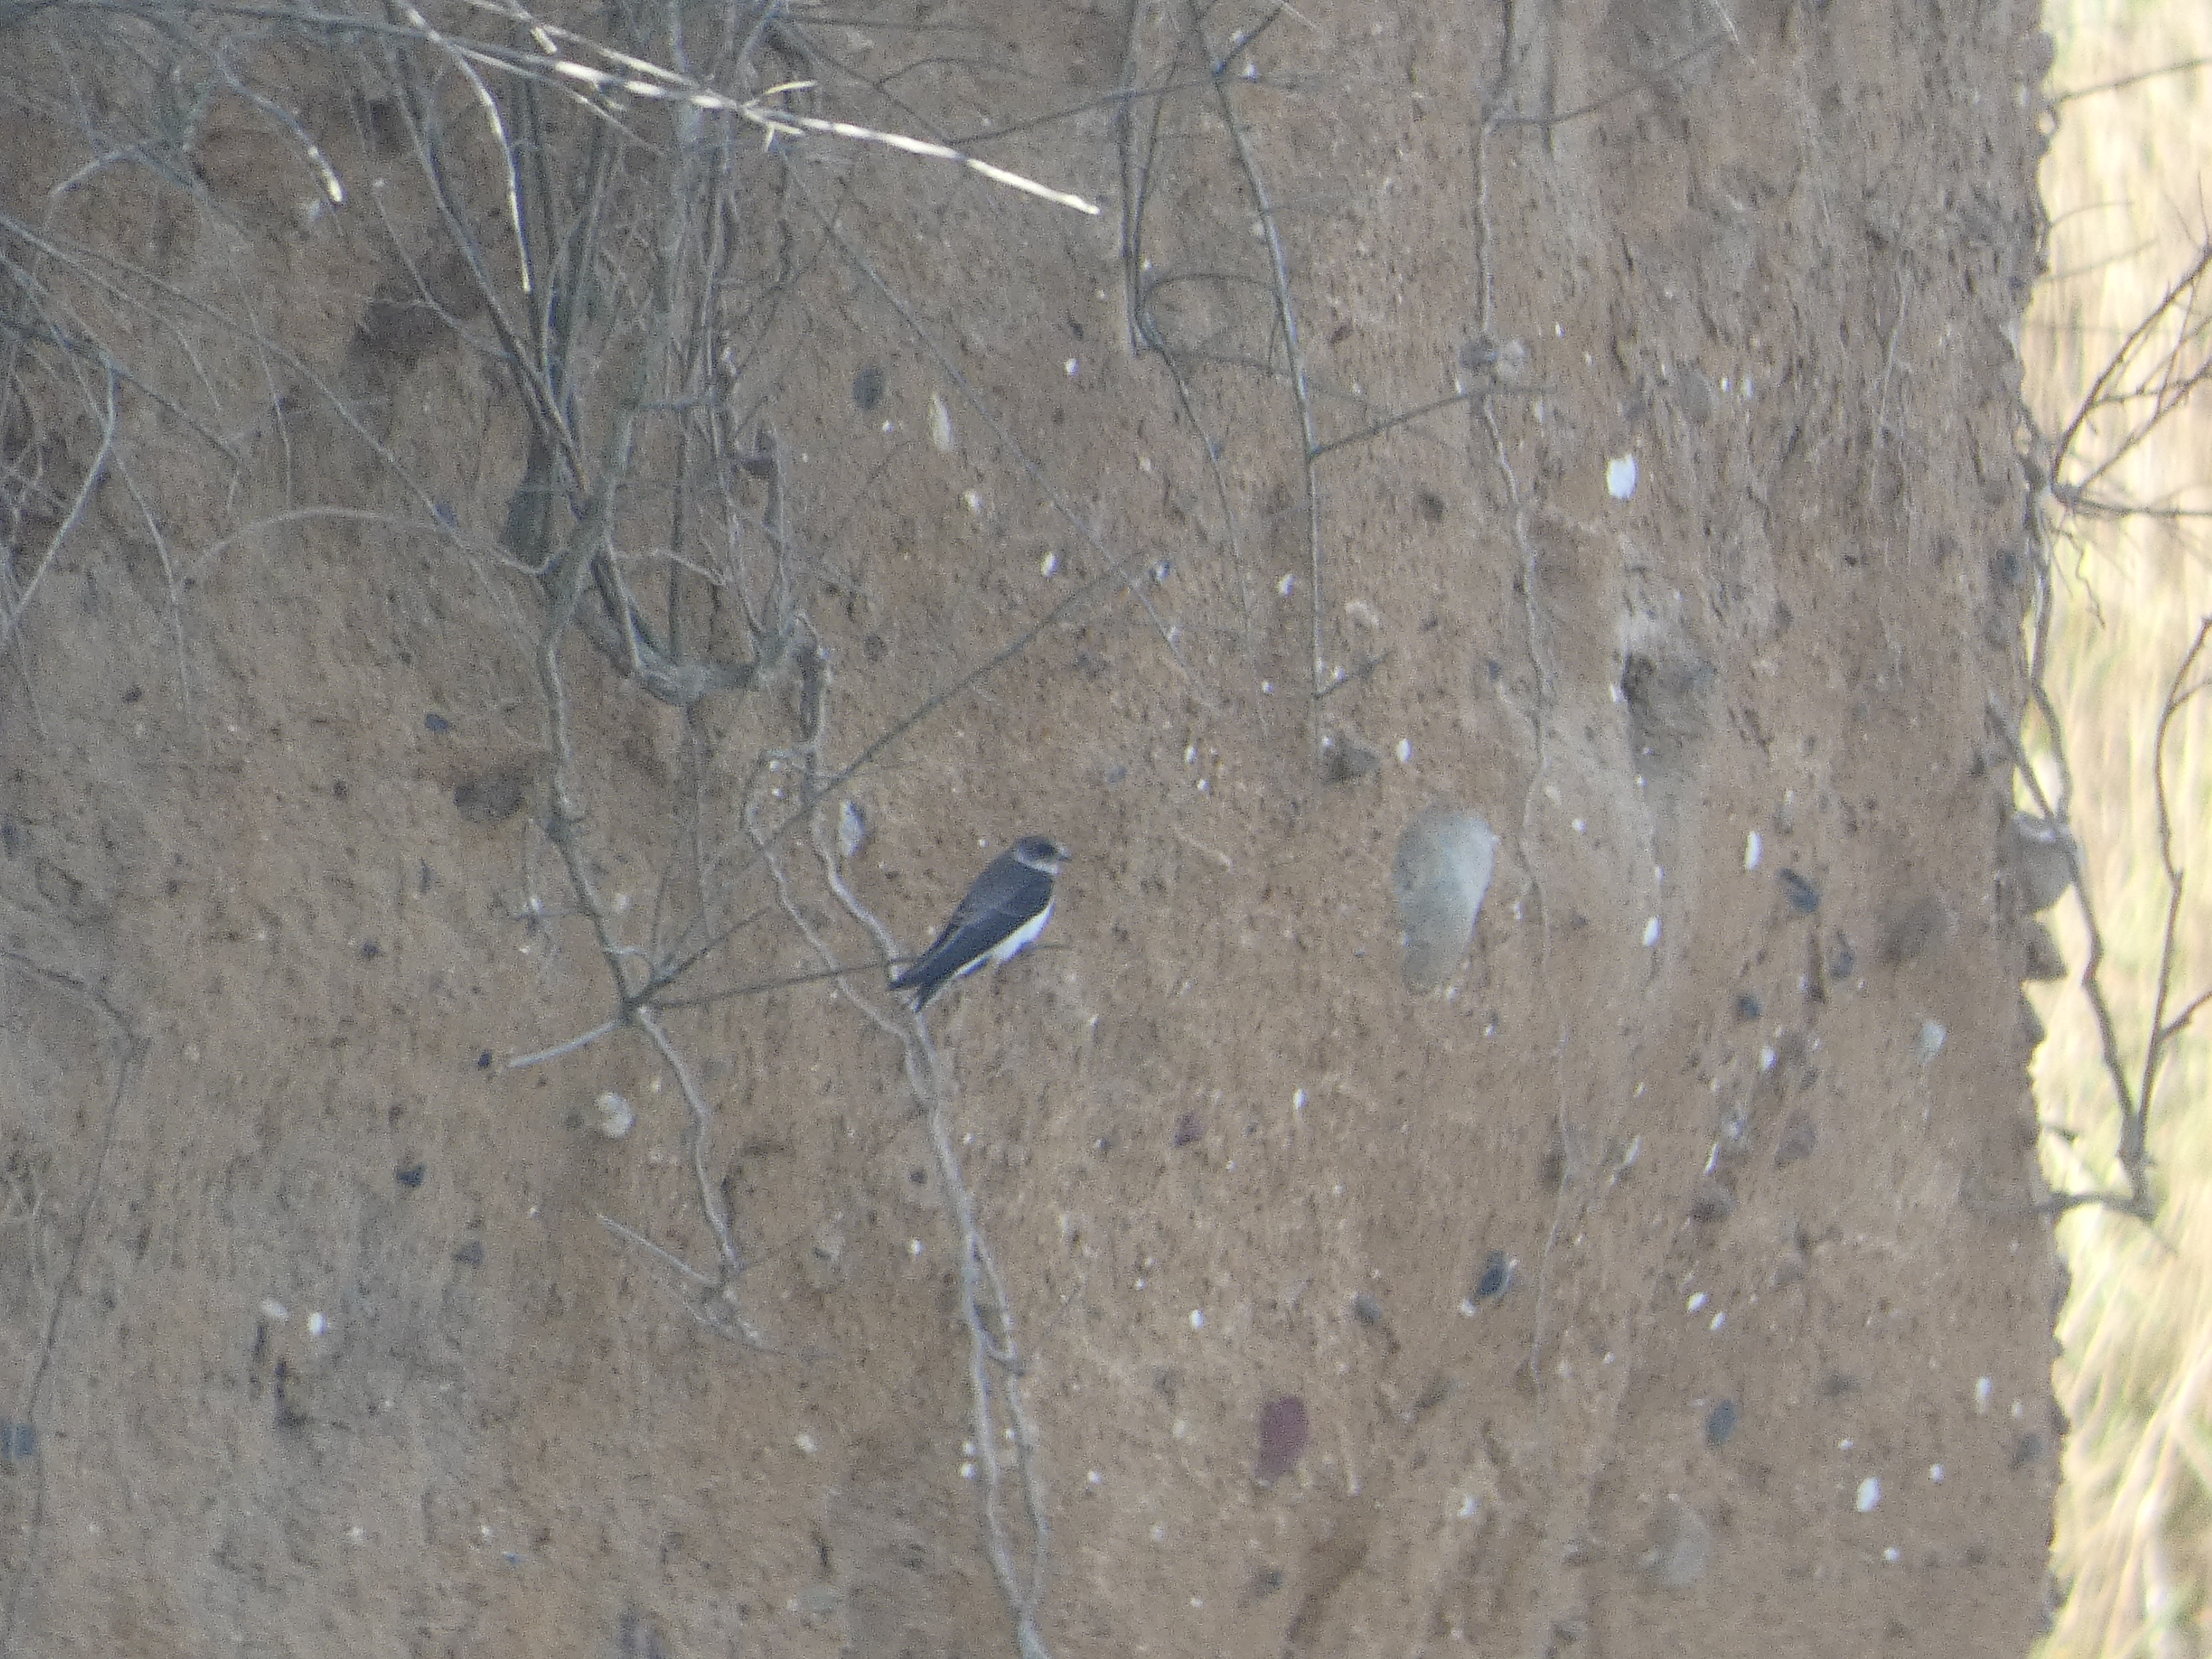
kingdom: Animalia
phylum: Chordata
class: Aves
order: Passeriformes
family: Hirundinidae
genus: Riparia
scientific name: Riparia riparia
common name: Digesvale
